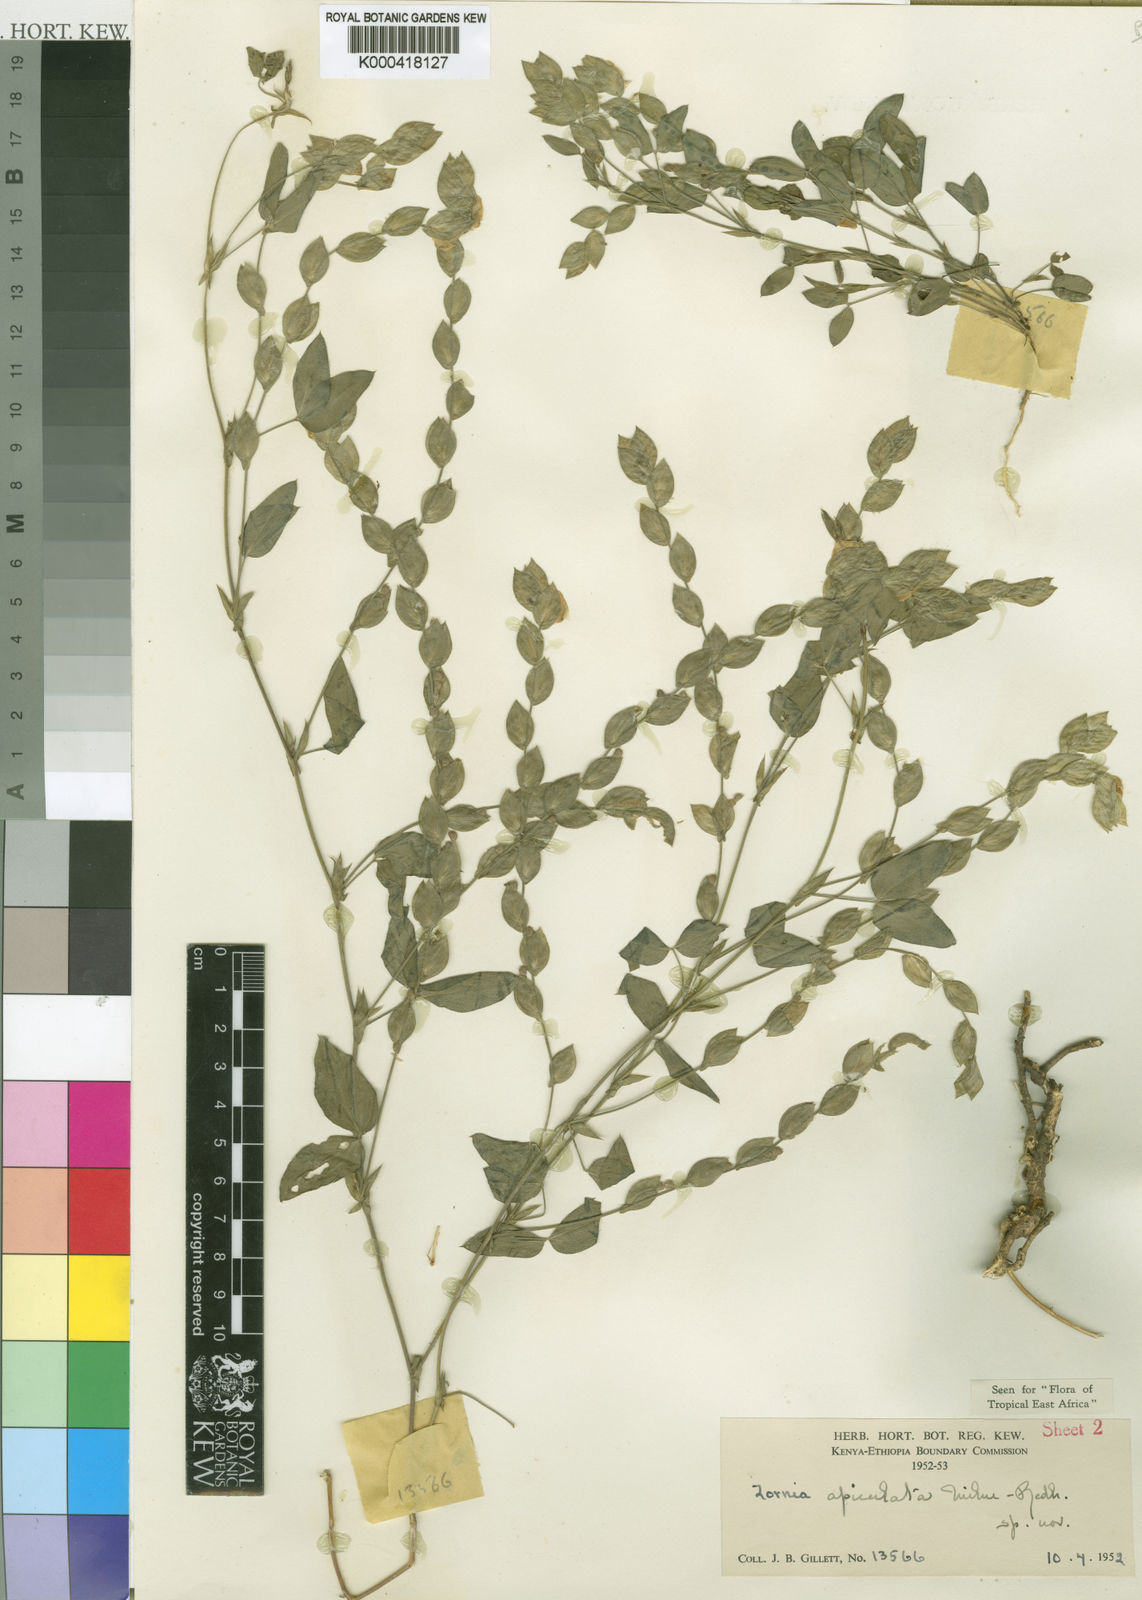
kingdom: Plantae
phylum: Tracheophyta
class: Magnoliopsida
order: Fabales
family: Fabaceae
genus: Zornia
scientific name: Zornia apiculata
